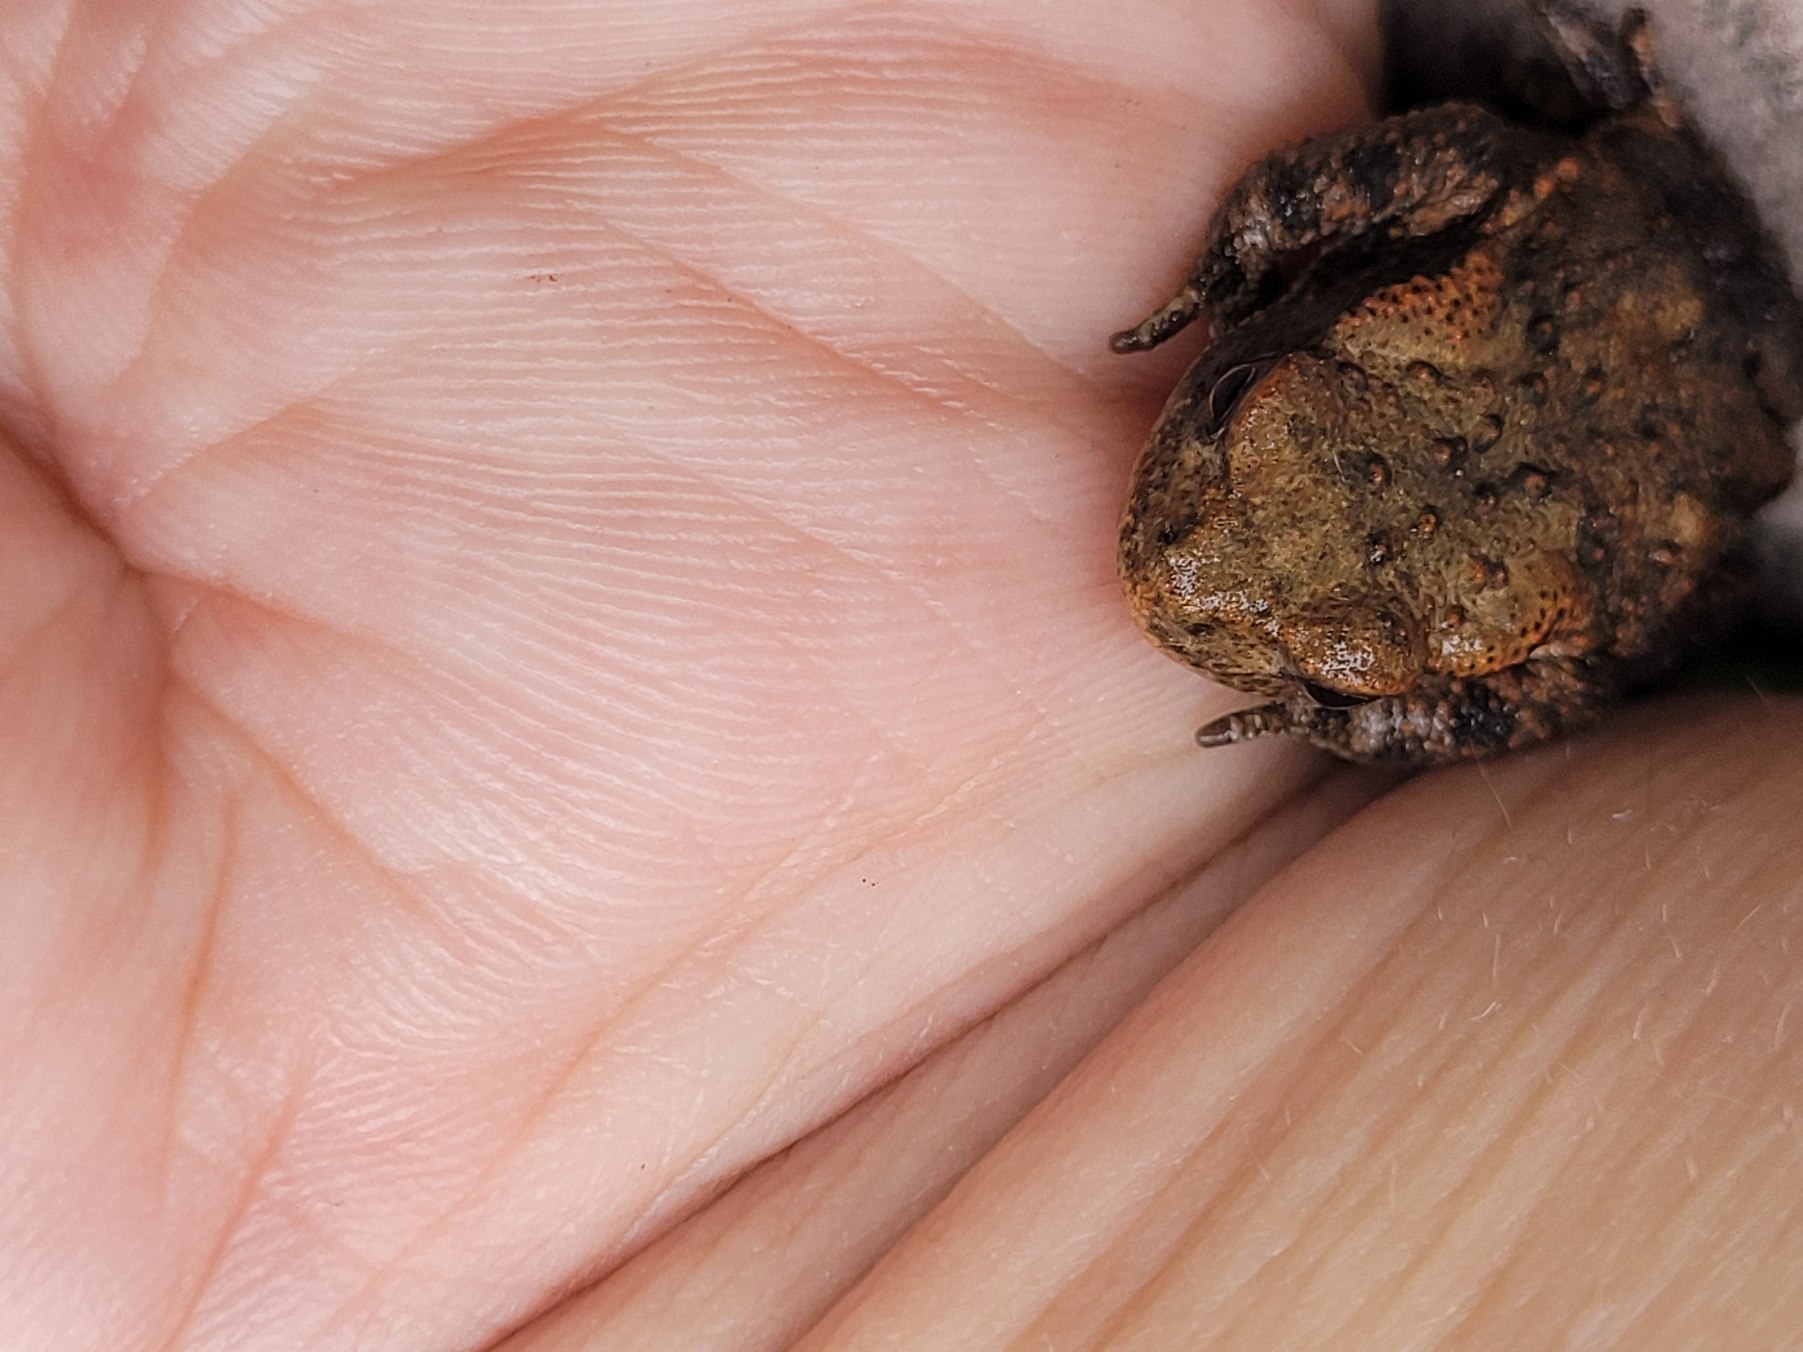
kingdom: Animalia
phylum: Chordata
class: Amphibia
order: Anura
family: Bufonidae
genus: Bufo
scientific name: Bufo bufo
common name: Skrubtudse
